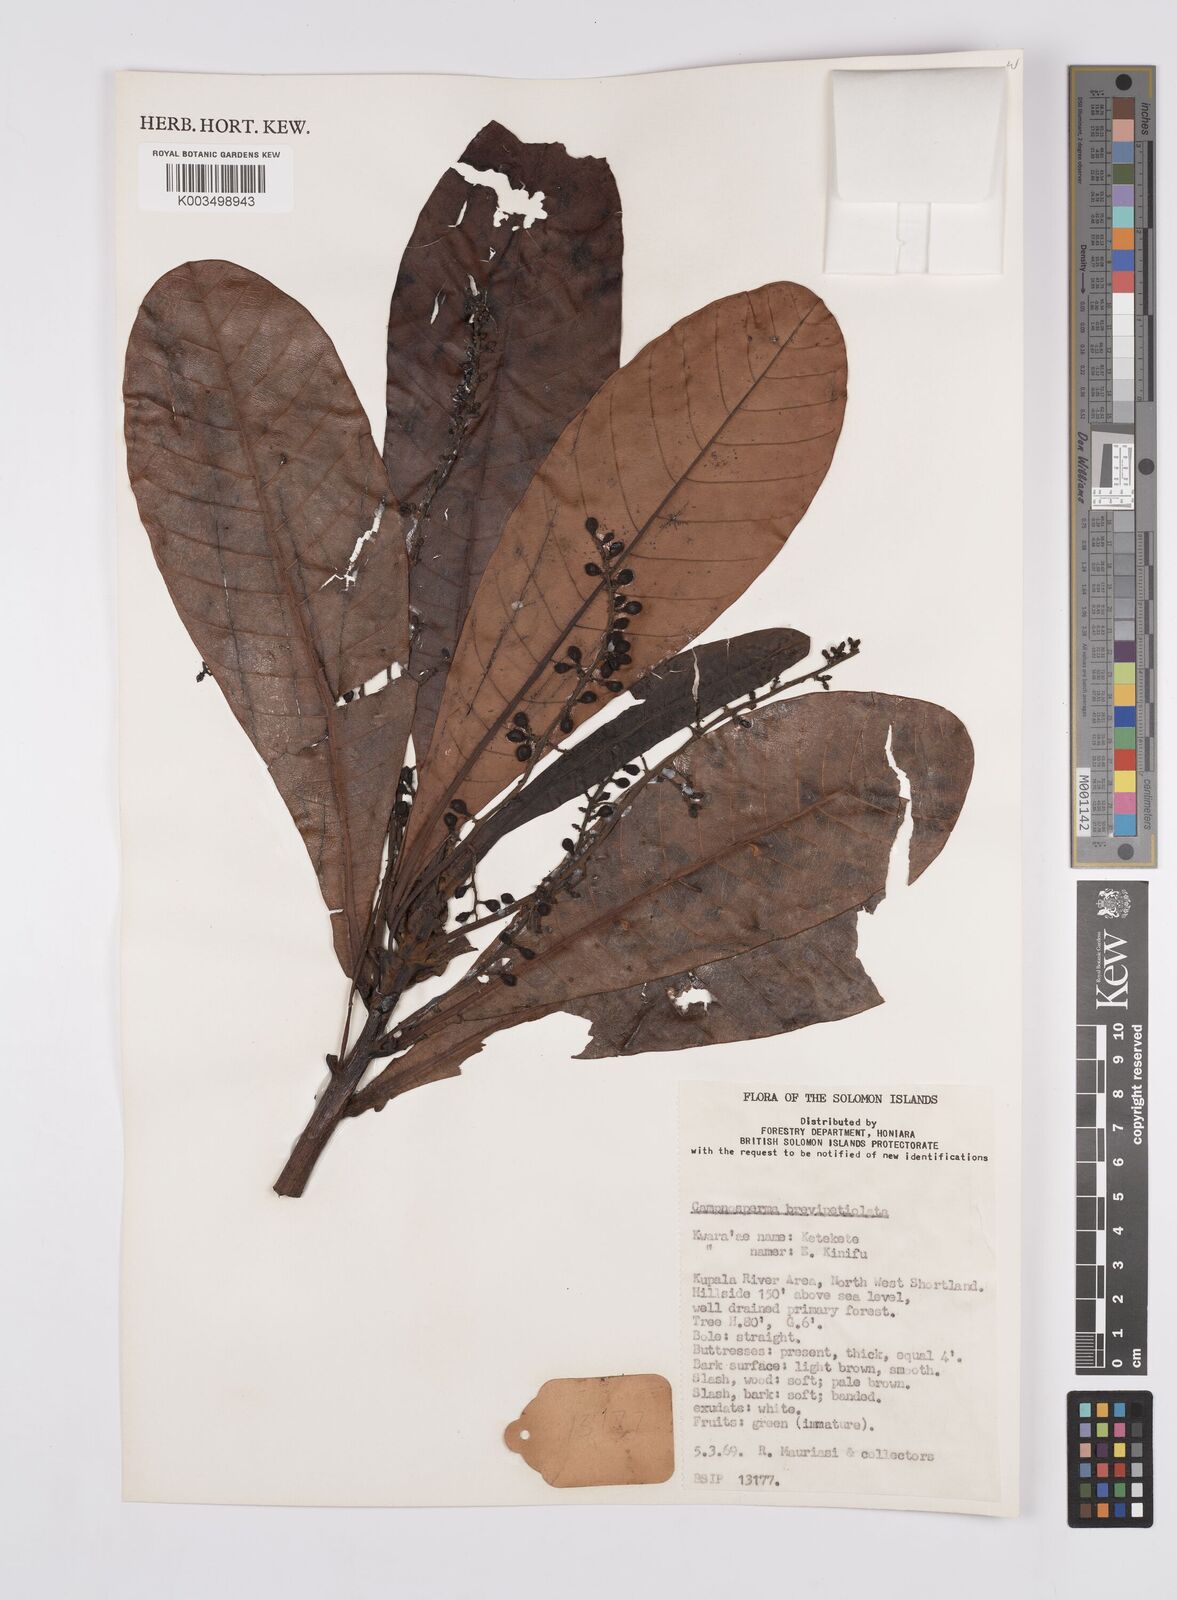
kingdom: Plantae
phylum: Tracheophyta
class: Magnoliopsida
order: Sapindales
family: Anacardiaceae
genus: Campnosperma
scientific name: Campnosperma brevipetiolatum
